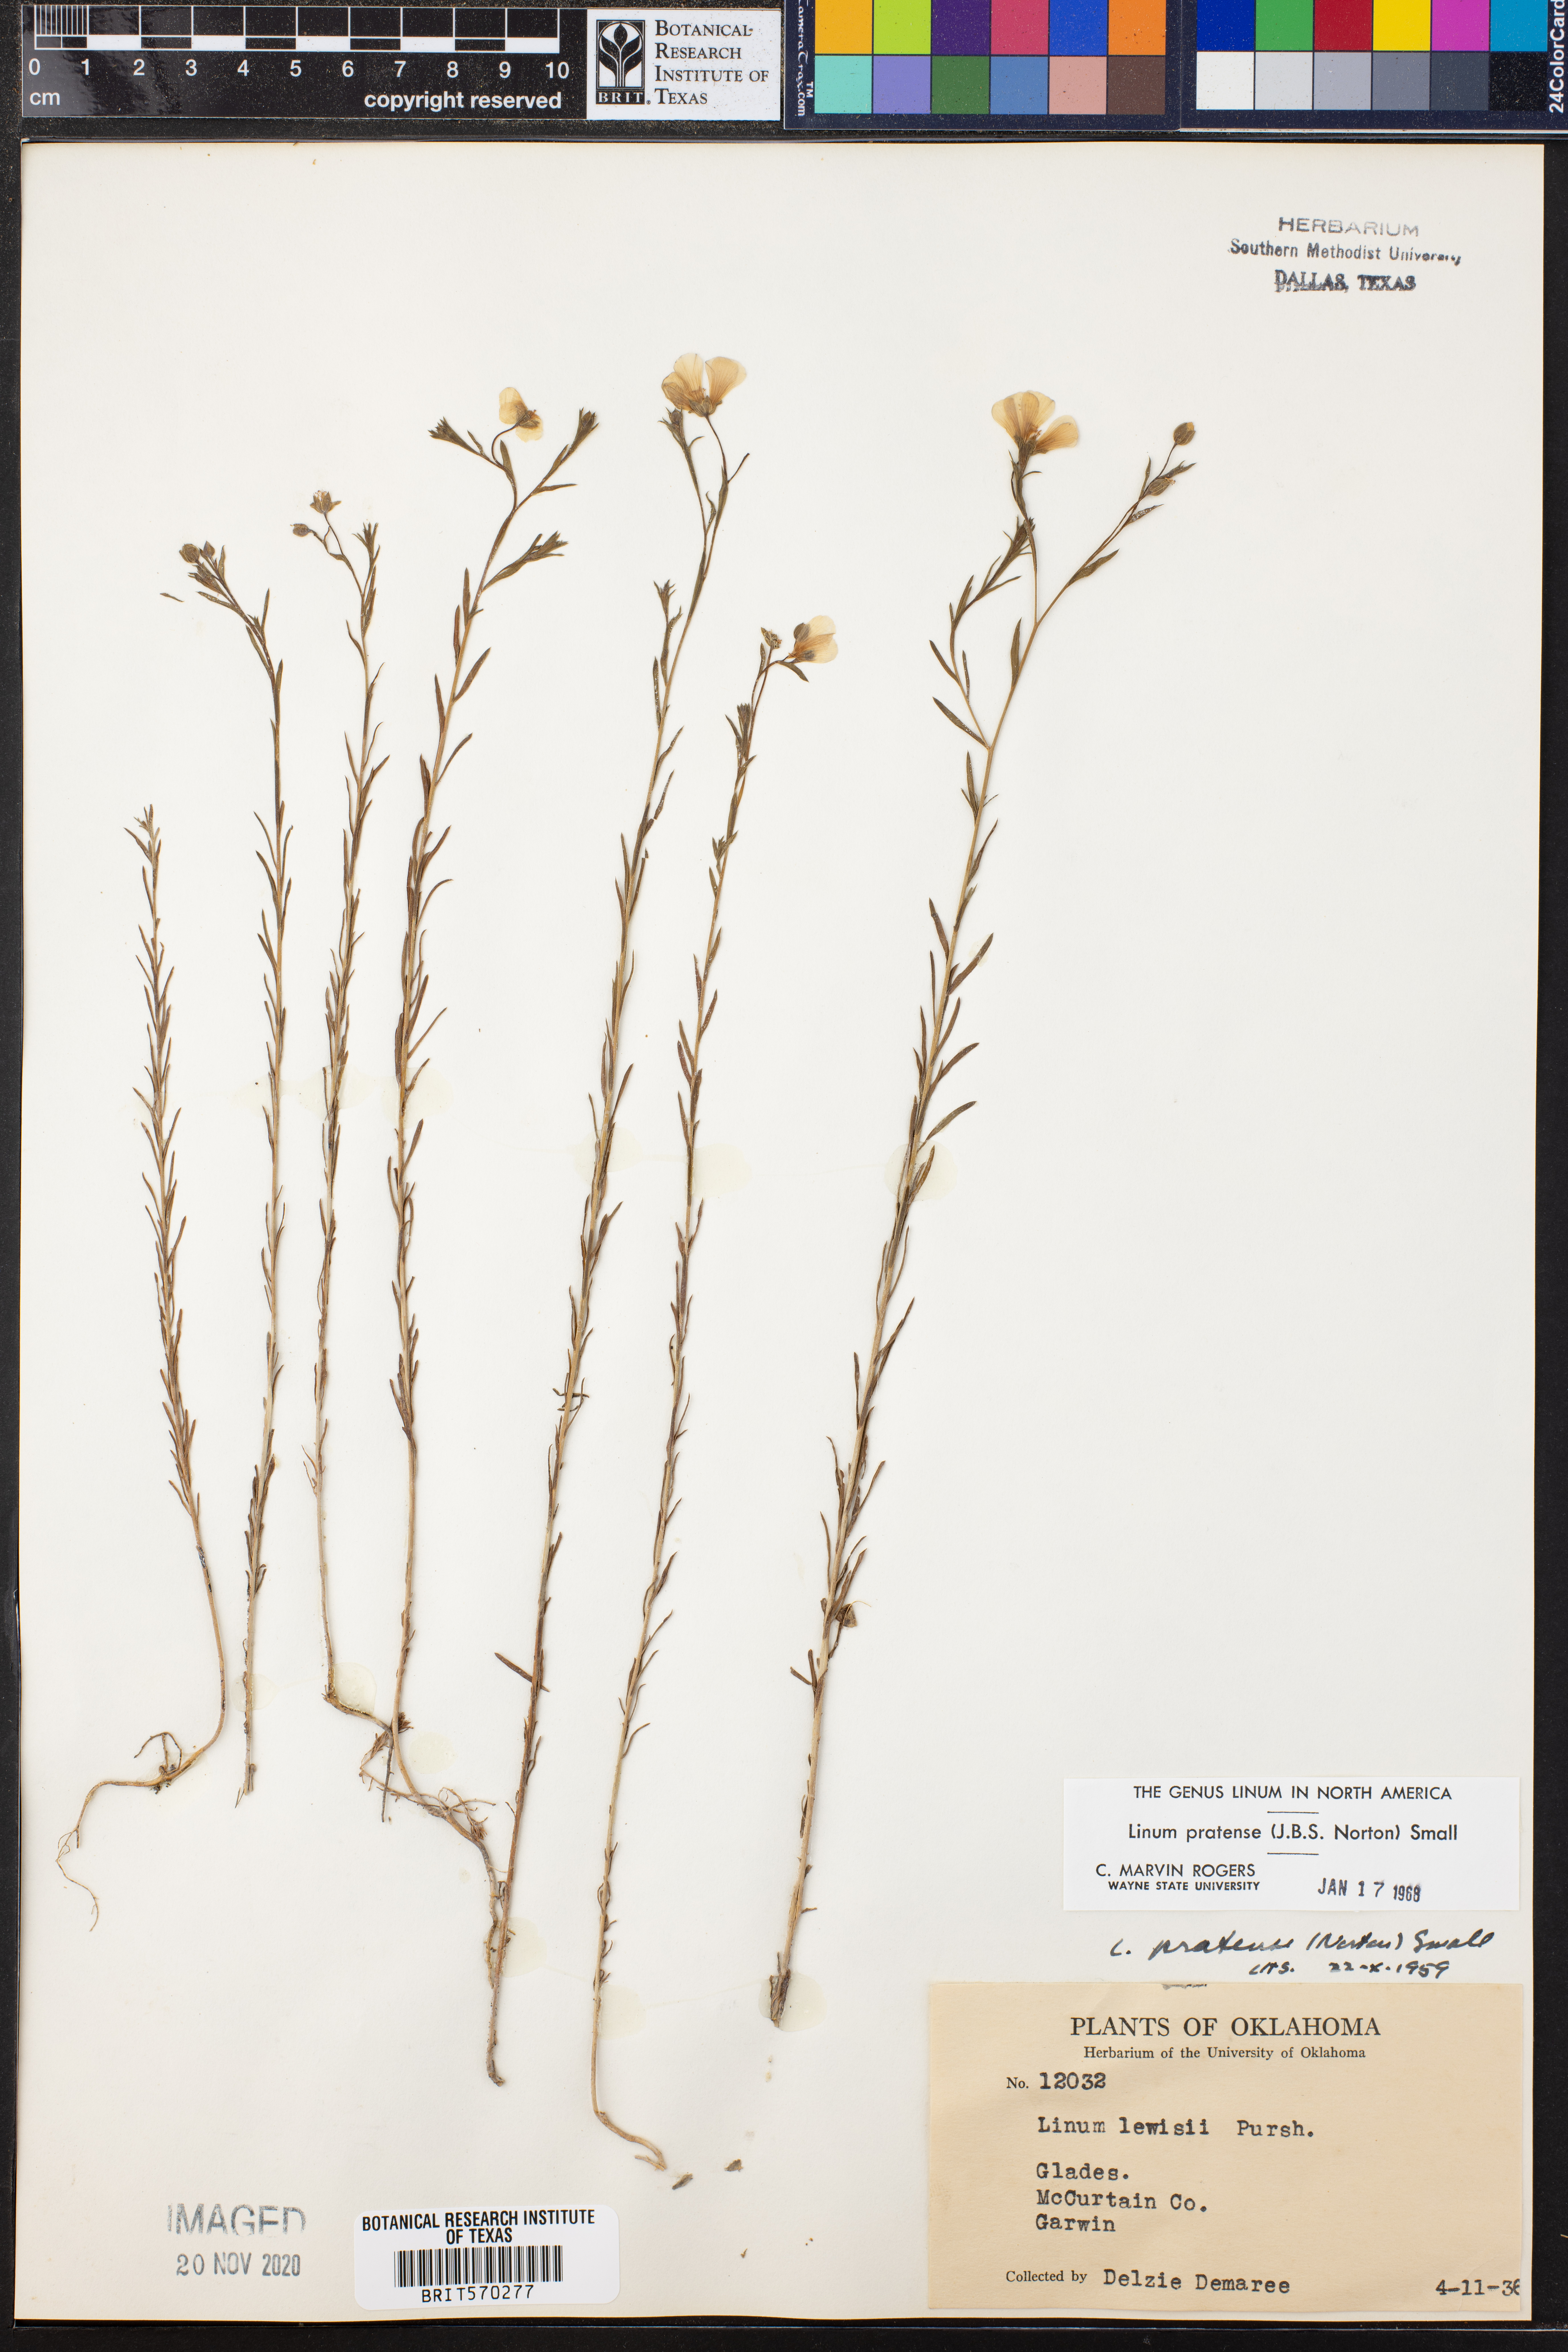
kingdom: Plantae
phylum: Tracheophyta
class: Magnoliopsida
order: Malpighiales
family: Linaceae
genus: Linum
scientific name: Linum pratense
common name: Norton's flax
